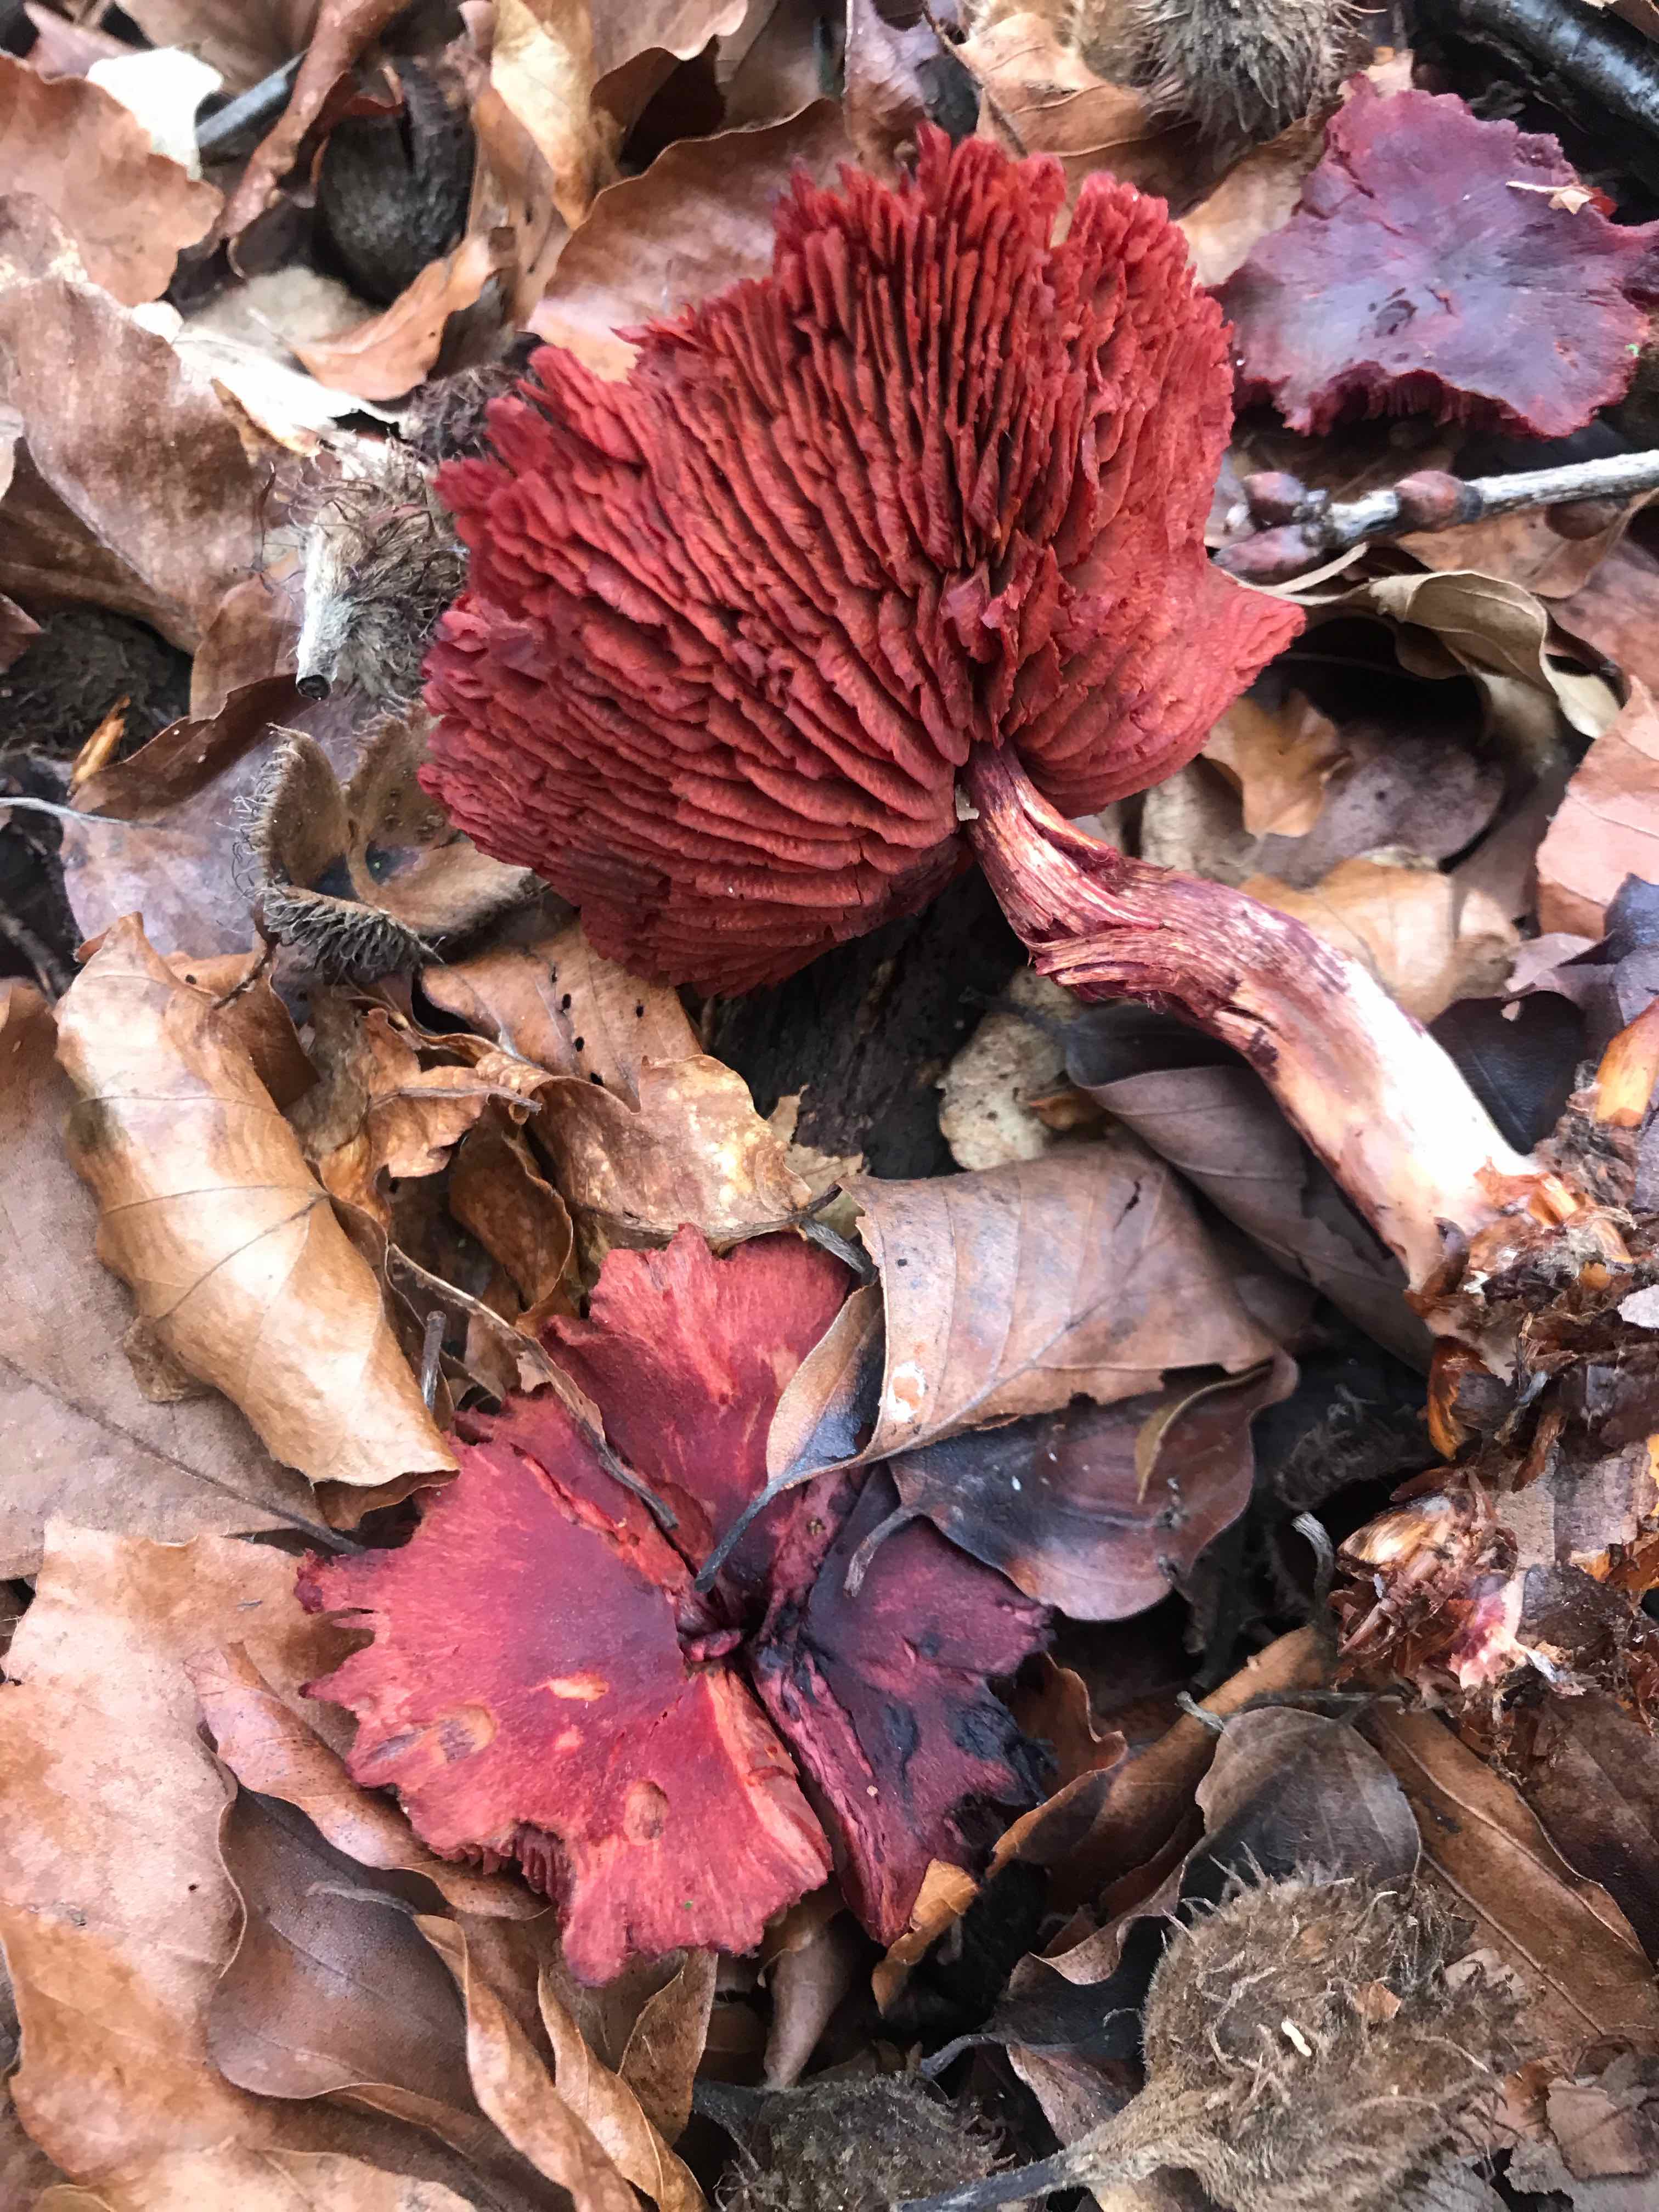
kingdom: Fungi
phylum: Basidiomycota
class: Agaricomycetes
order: Agaricales
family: Cortinariaceae
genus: Cortinarius
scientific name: Cortinarius sanguineus
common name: Bloodred webcap
